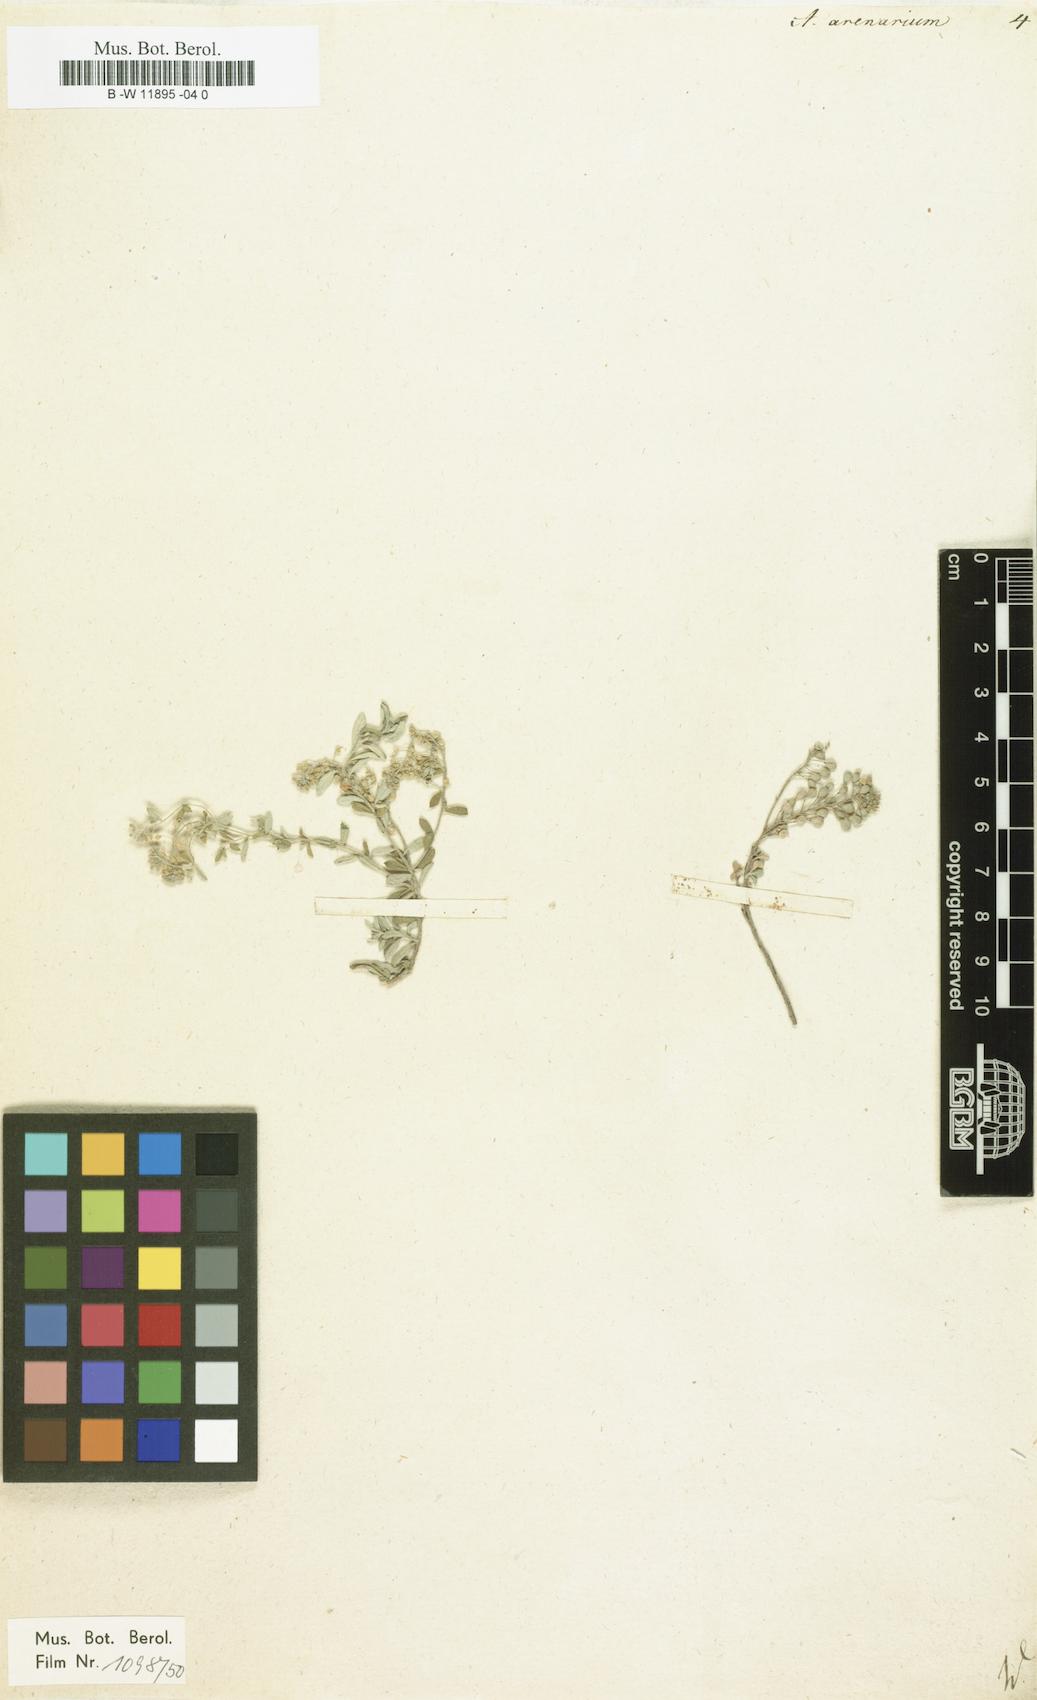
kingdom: Plantae
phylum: Tracheophyta
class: Magnoliopsida
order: Brassicales
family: Brassicaceae
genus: Alyssum
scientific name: Alyssum gmelinii
